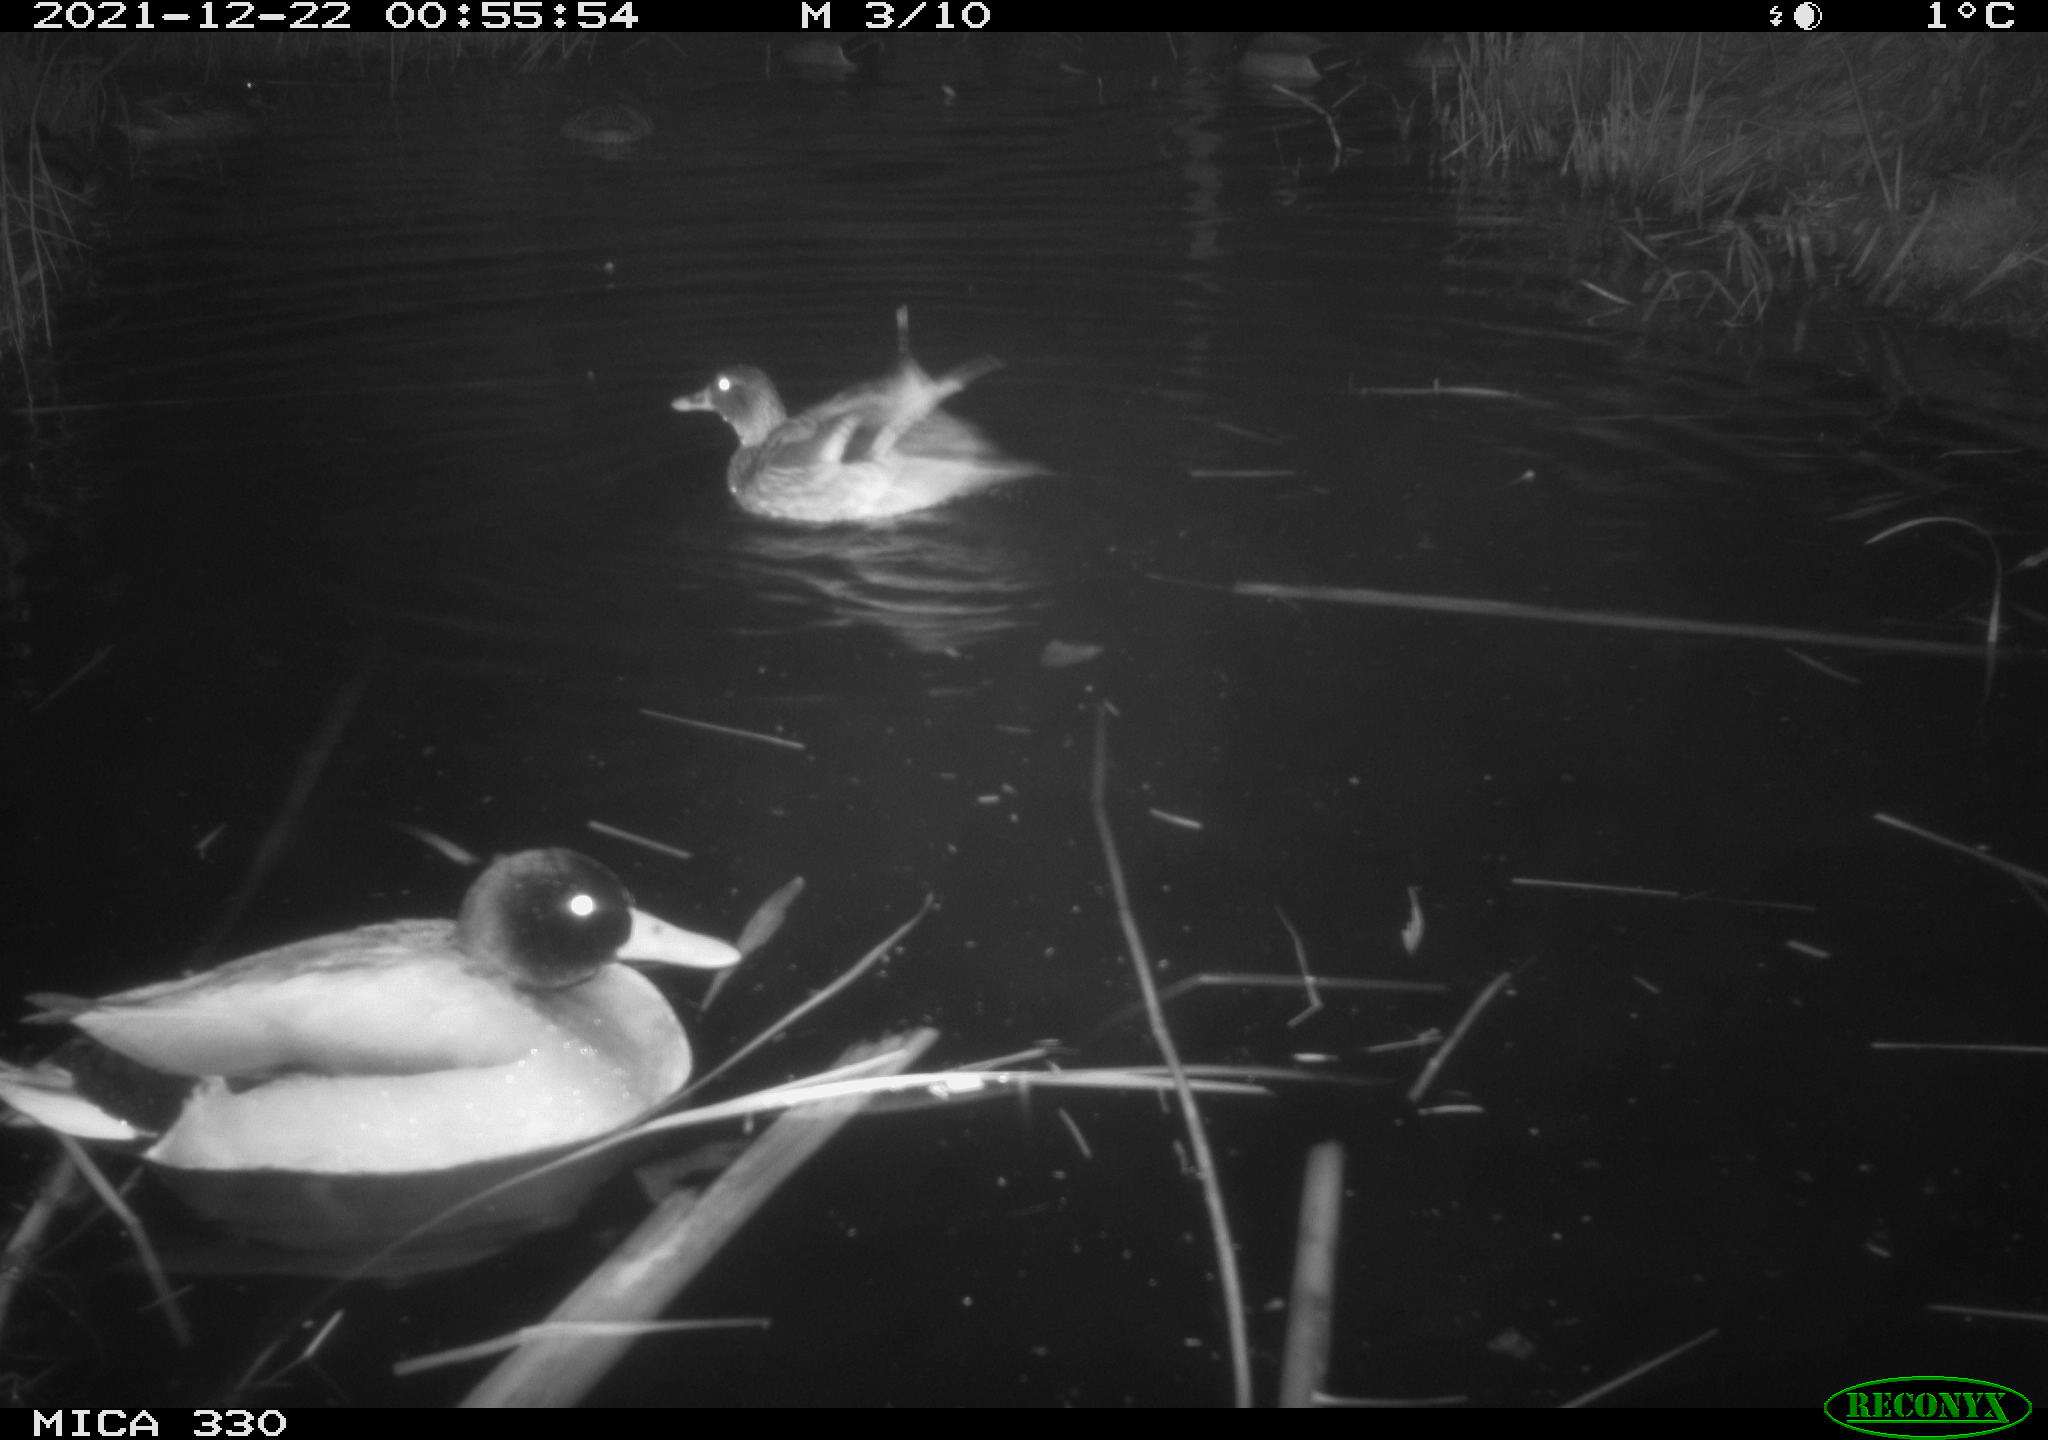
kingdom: Animalia
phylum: Chordata
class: Aves
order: Anseriformes
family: Anatidae
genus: Anas
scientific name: Anas platyrhynchos
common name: Mallard
